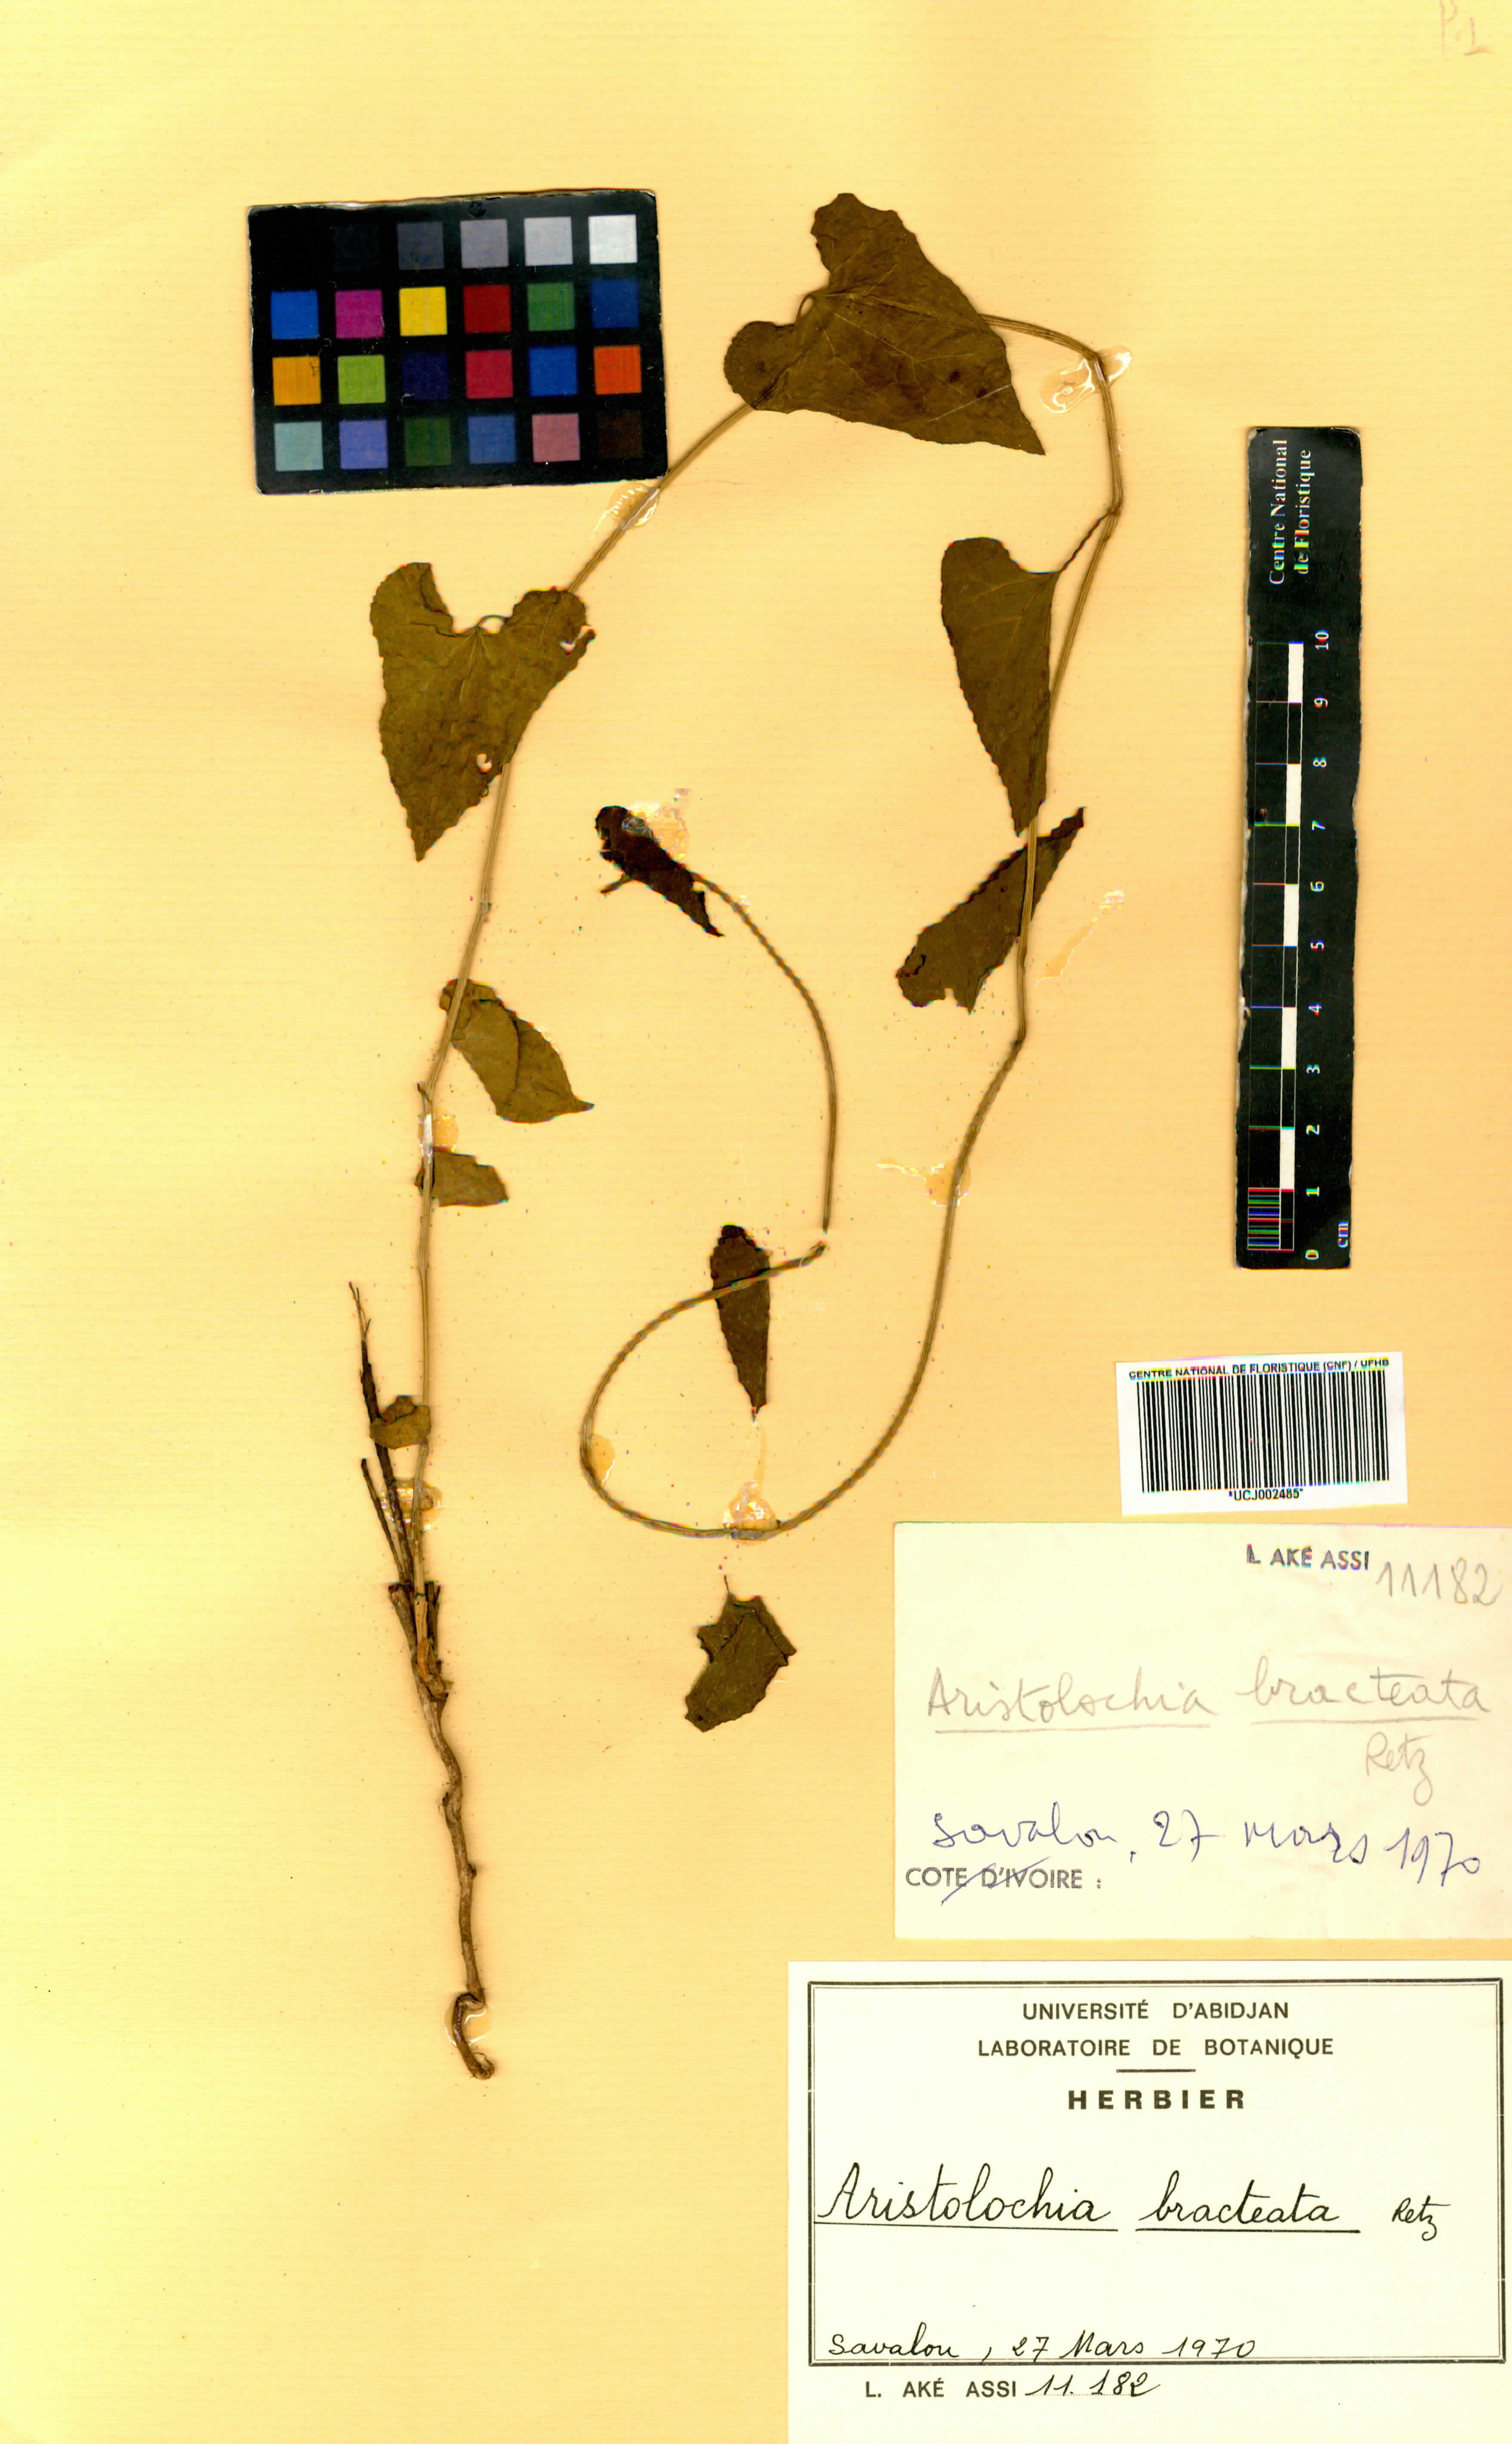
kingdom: Plantae
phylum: Tracheophyta
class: Magnoliopsida
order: Piperales
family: Aristolochiaceae
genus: Aristolochia
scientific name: Aristolochia bracteolata
